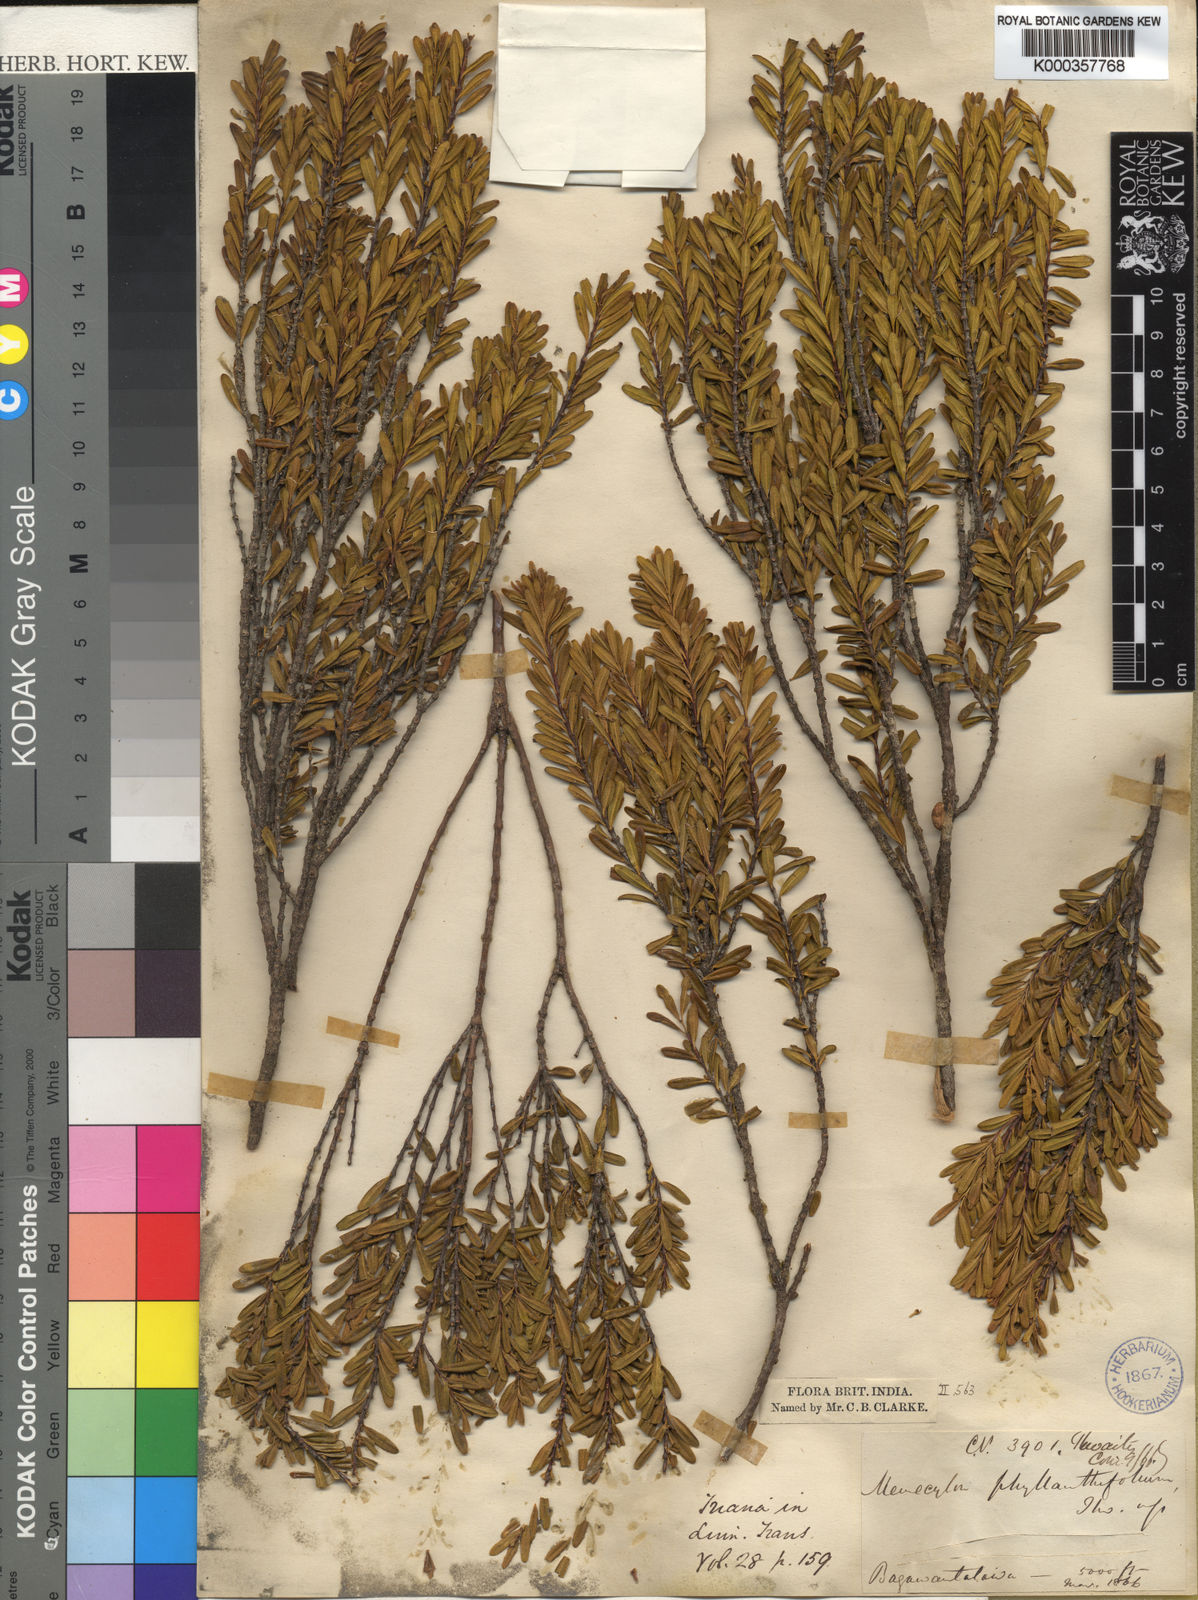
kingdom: Plantae
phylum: Tracheophyta
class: Magnoliopsida
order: Myrtales
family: Melastomataceae
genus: Memecylon
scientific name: Memecylon phyllanthifolium
